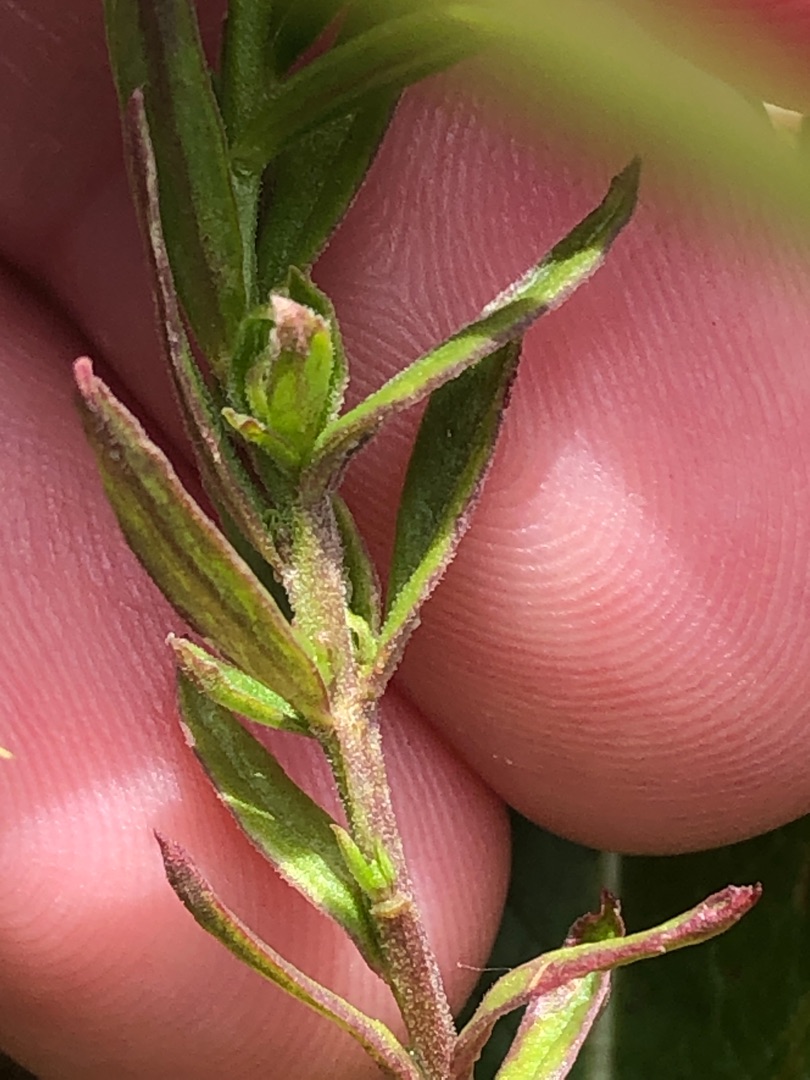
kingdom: Plantae
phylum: Tracheophyta
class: Magnoliopsida
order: Fabales
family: Polygalaceae
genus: Polygala
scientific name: Polygala vulgaris
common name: Almindelig mælkeurt
